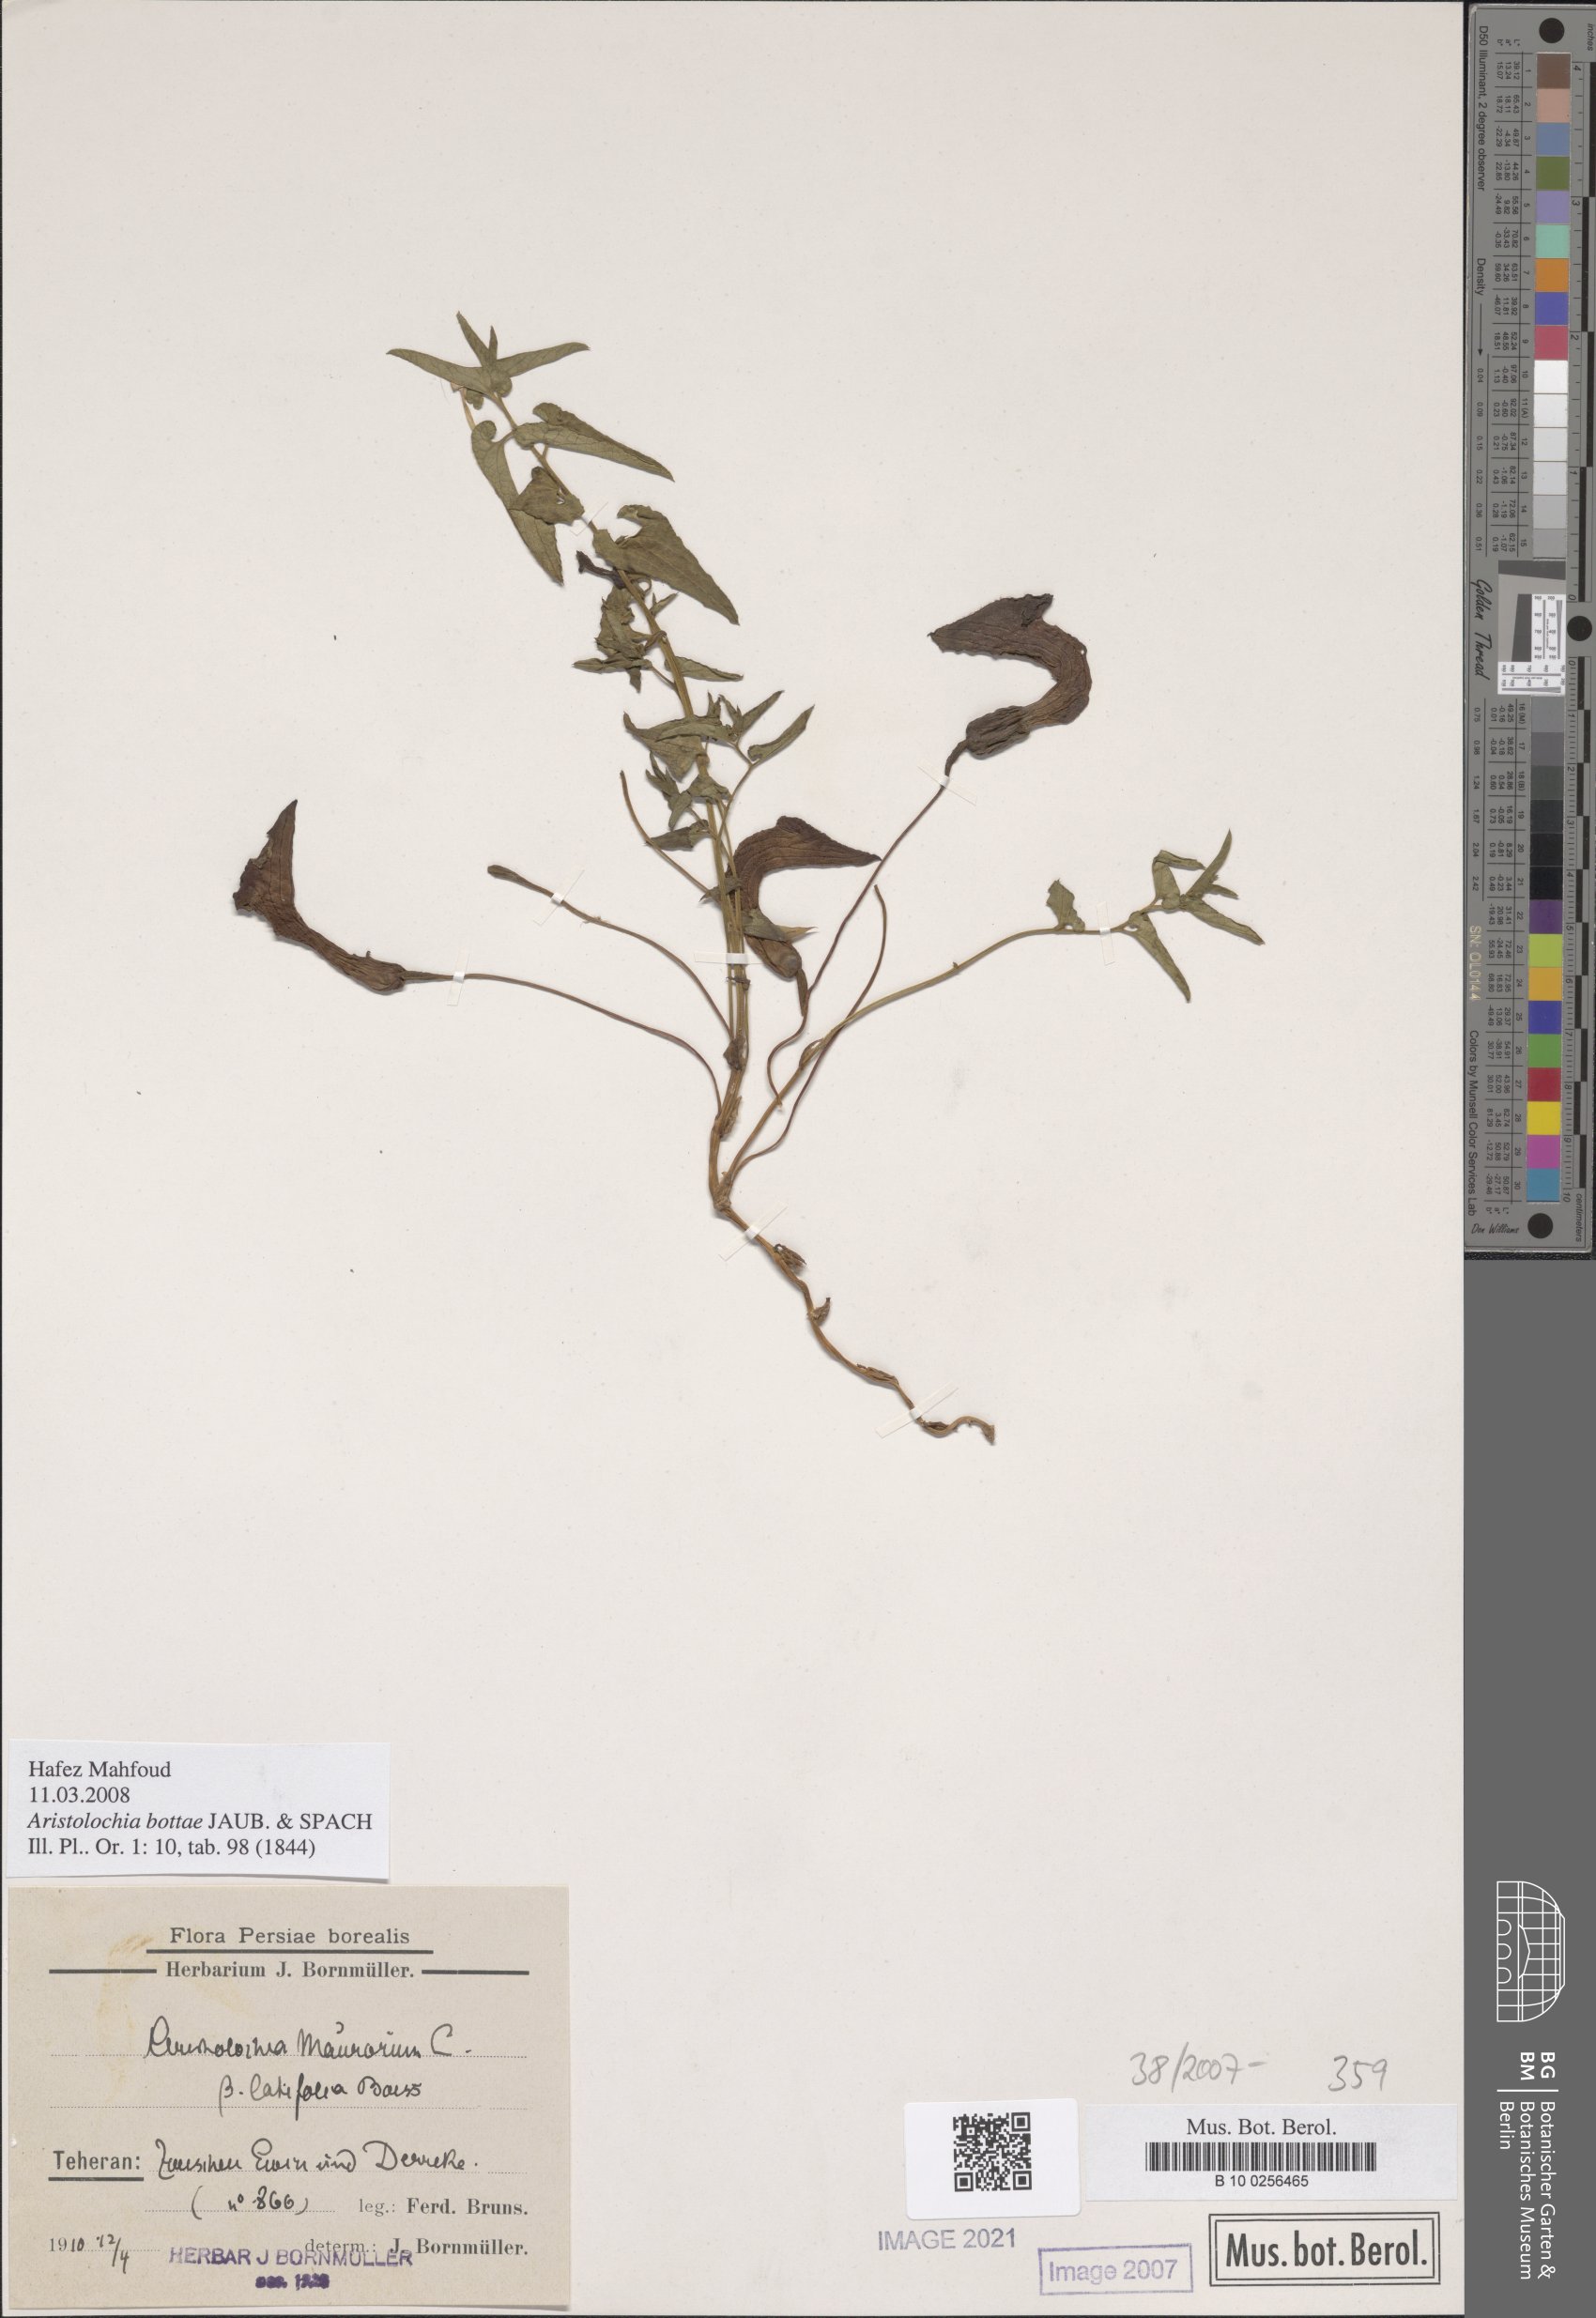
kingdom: Plantae
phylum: Tracheophyta
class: Magnoliopsida
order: Piperales
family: Aristolochiaceae
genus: Aristolochia
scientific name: Aristolochia bottae
